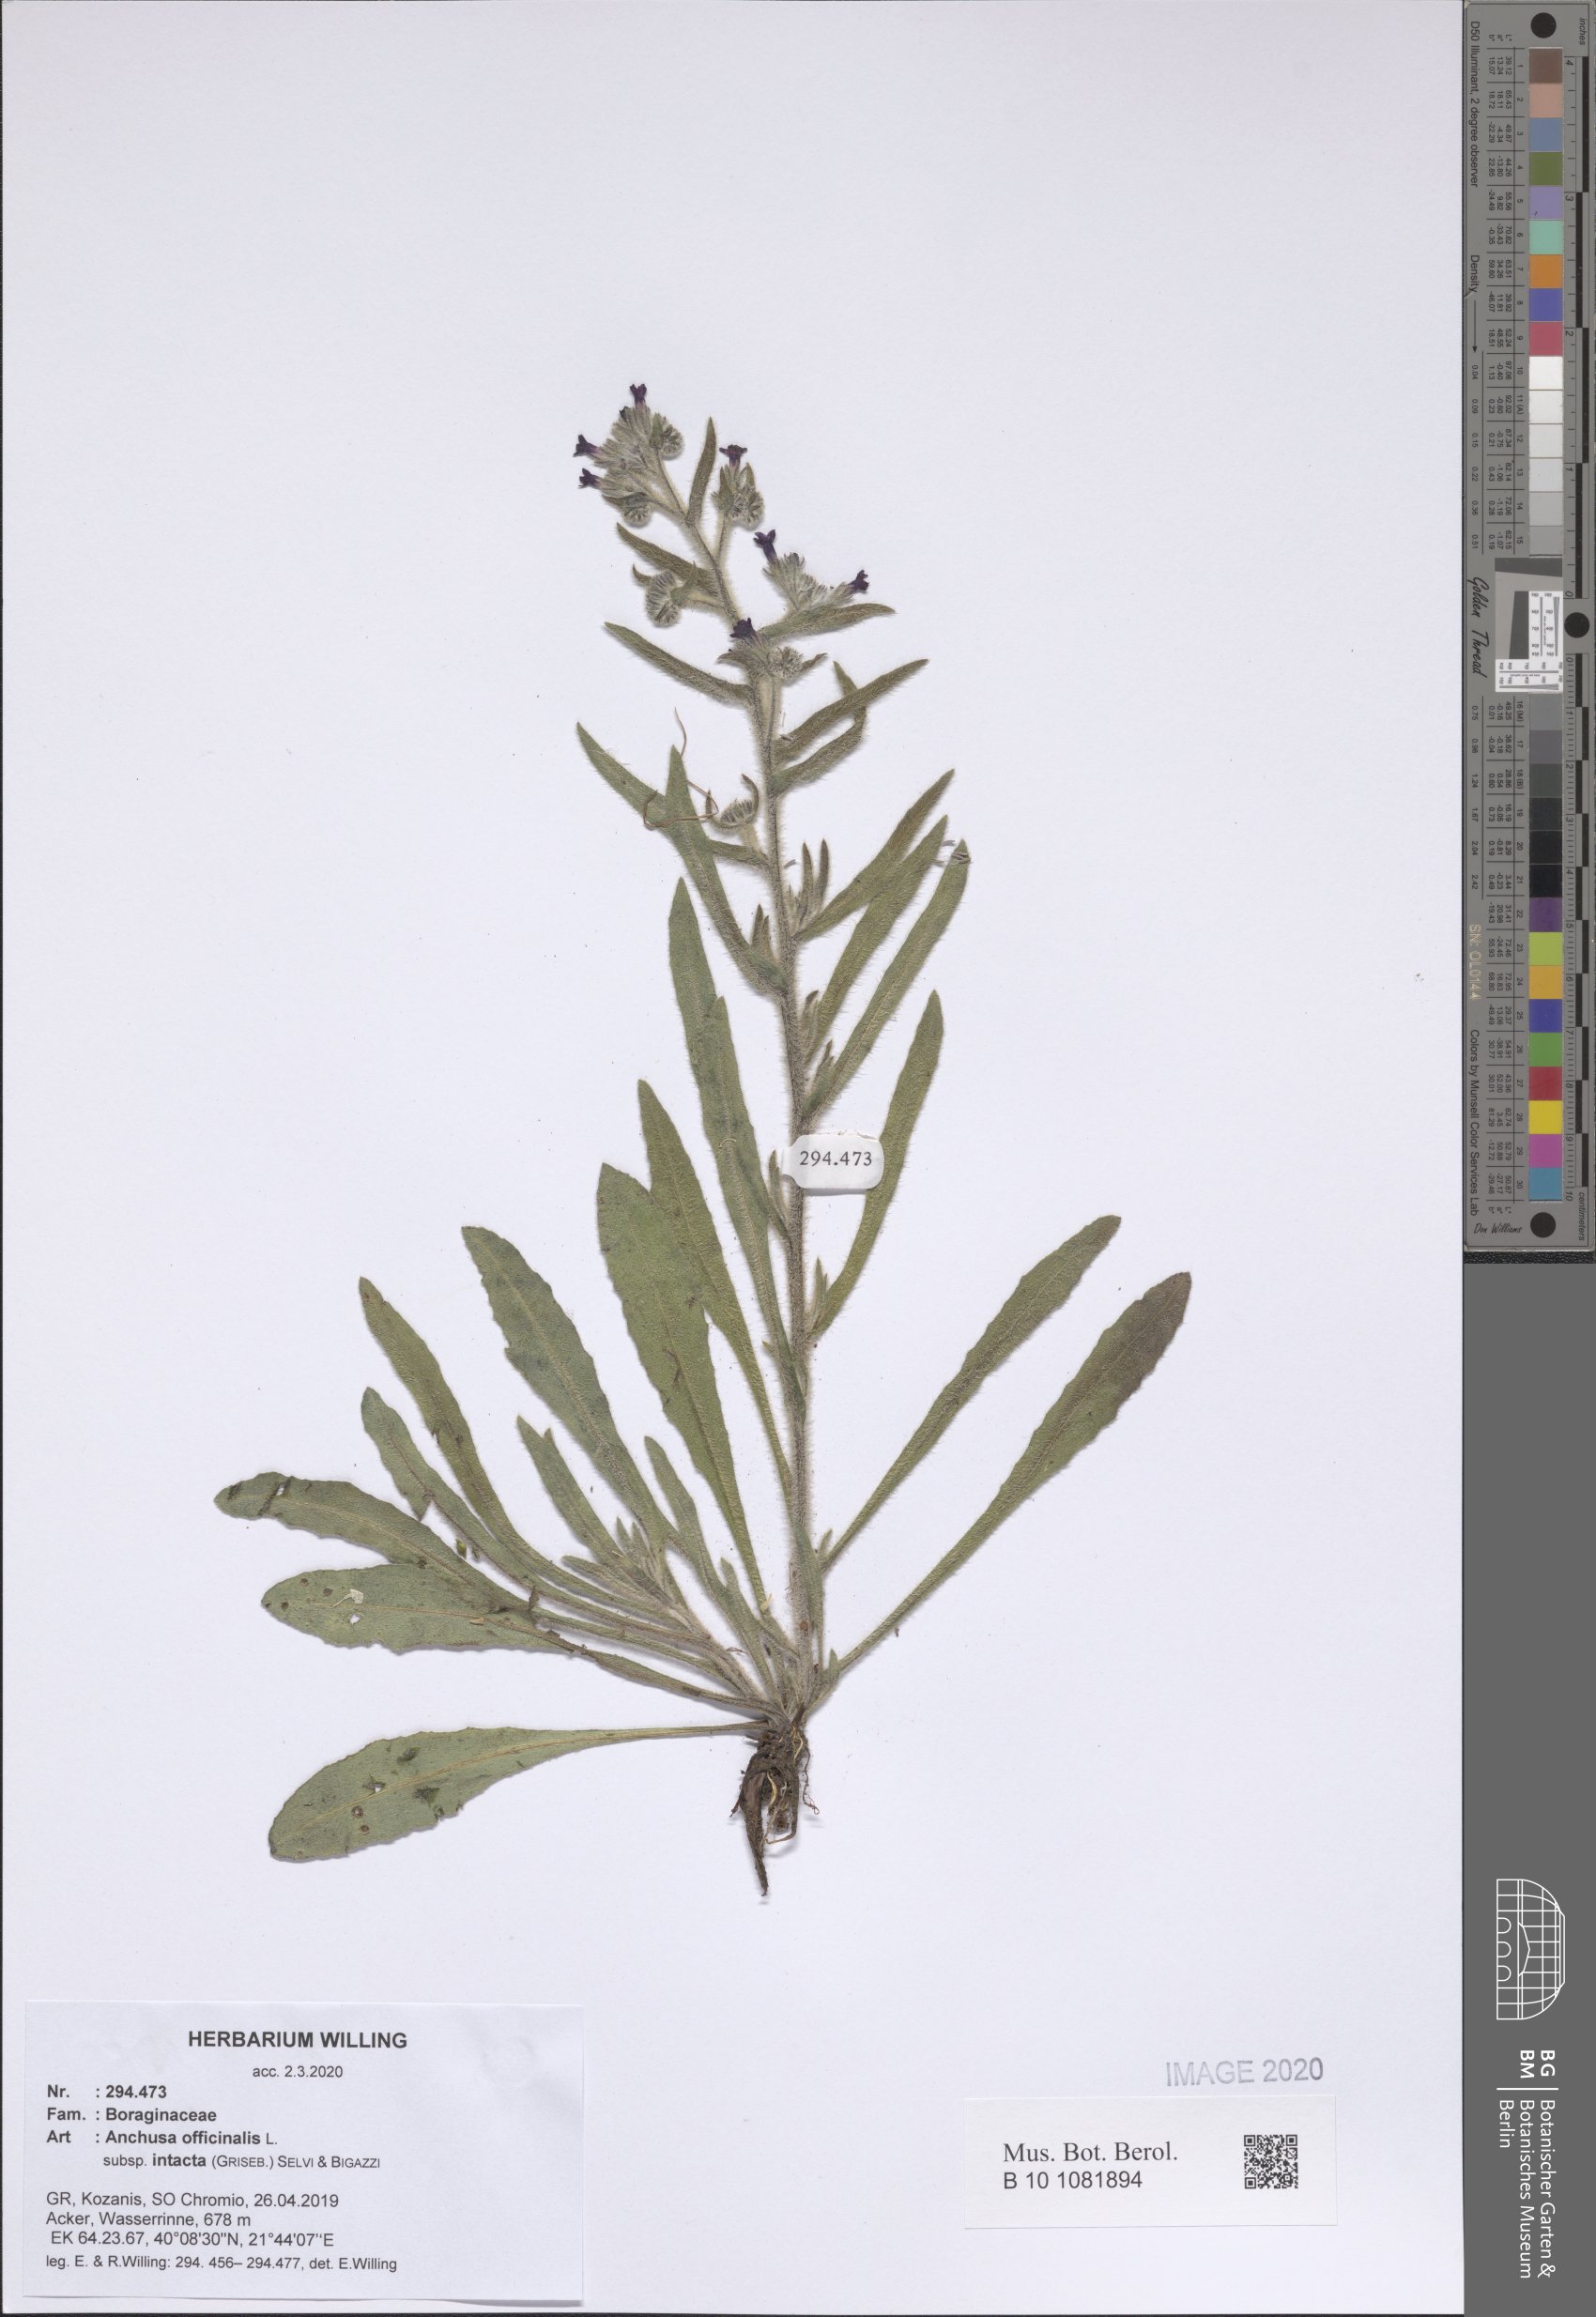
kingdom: Plantae
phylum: Tracheophyta
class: Magnoliopsida
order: Boraginales
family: Boraginaceae
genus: Anchusa
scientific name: Anchusa officinalis
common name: Alkanet
